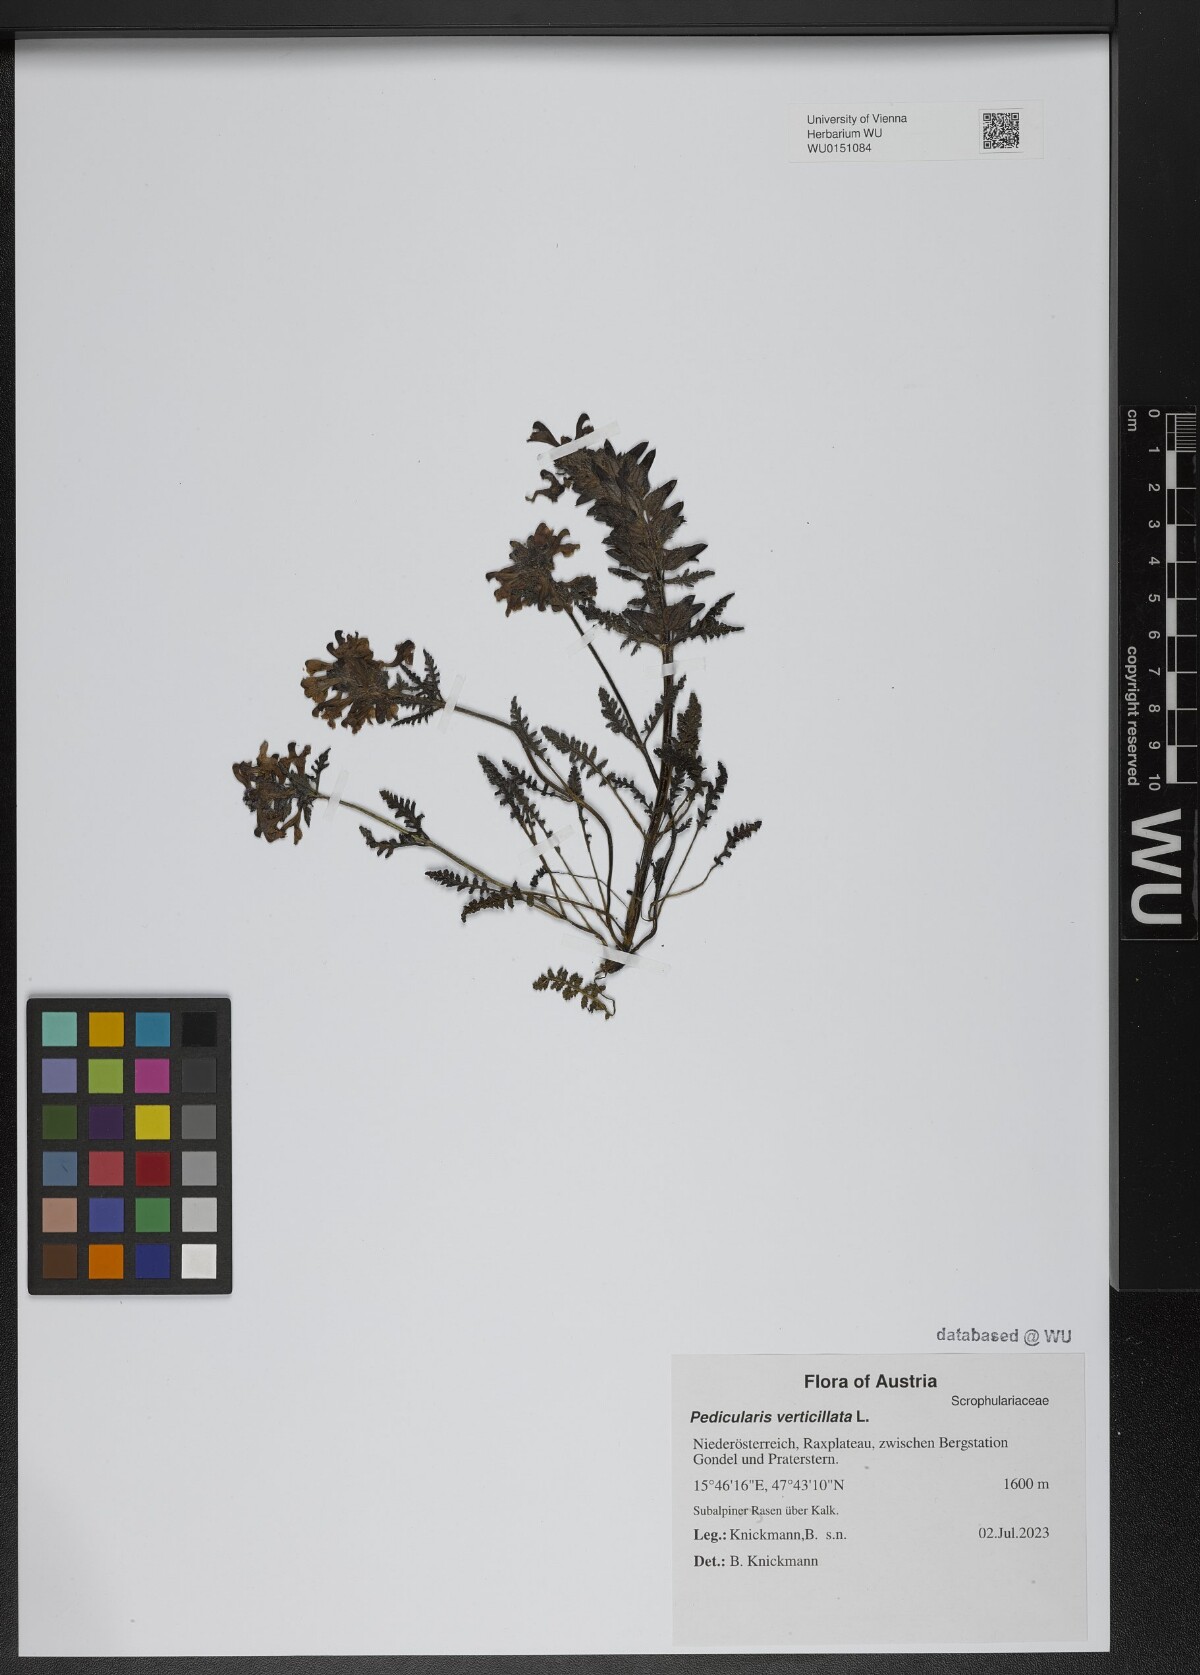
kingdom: Plantae
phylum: Tracheophyta
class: Magnoliopsida
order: Lamiales
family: Orobanchaceae
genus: Pedicularis
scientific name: Pedicularis verticillata
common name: Whorled lousewort
